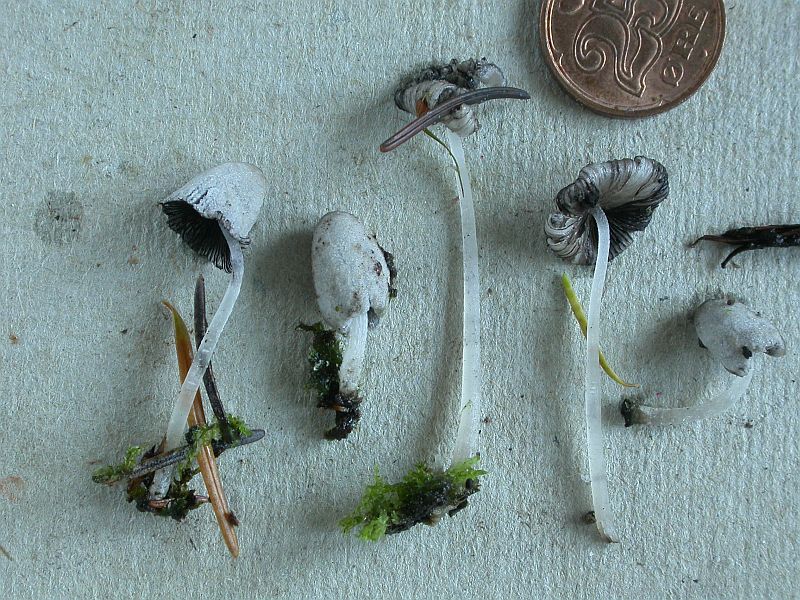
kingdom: Fungi
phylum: Basidiomycota
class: Agaricomycetes
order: Agaricales
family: Psathyrellaceae
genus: Coprinopsis
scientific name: Coprinopsis laanii
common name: stub-blækhat
